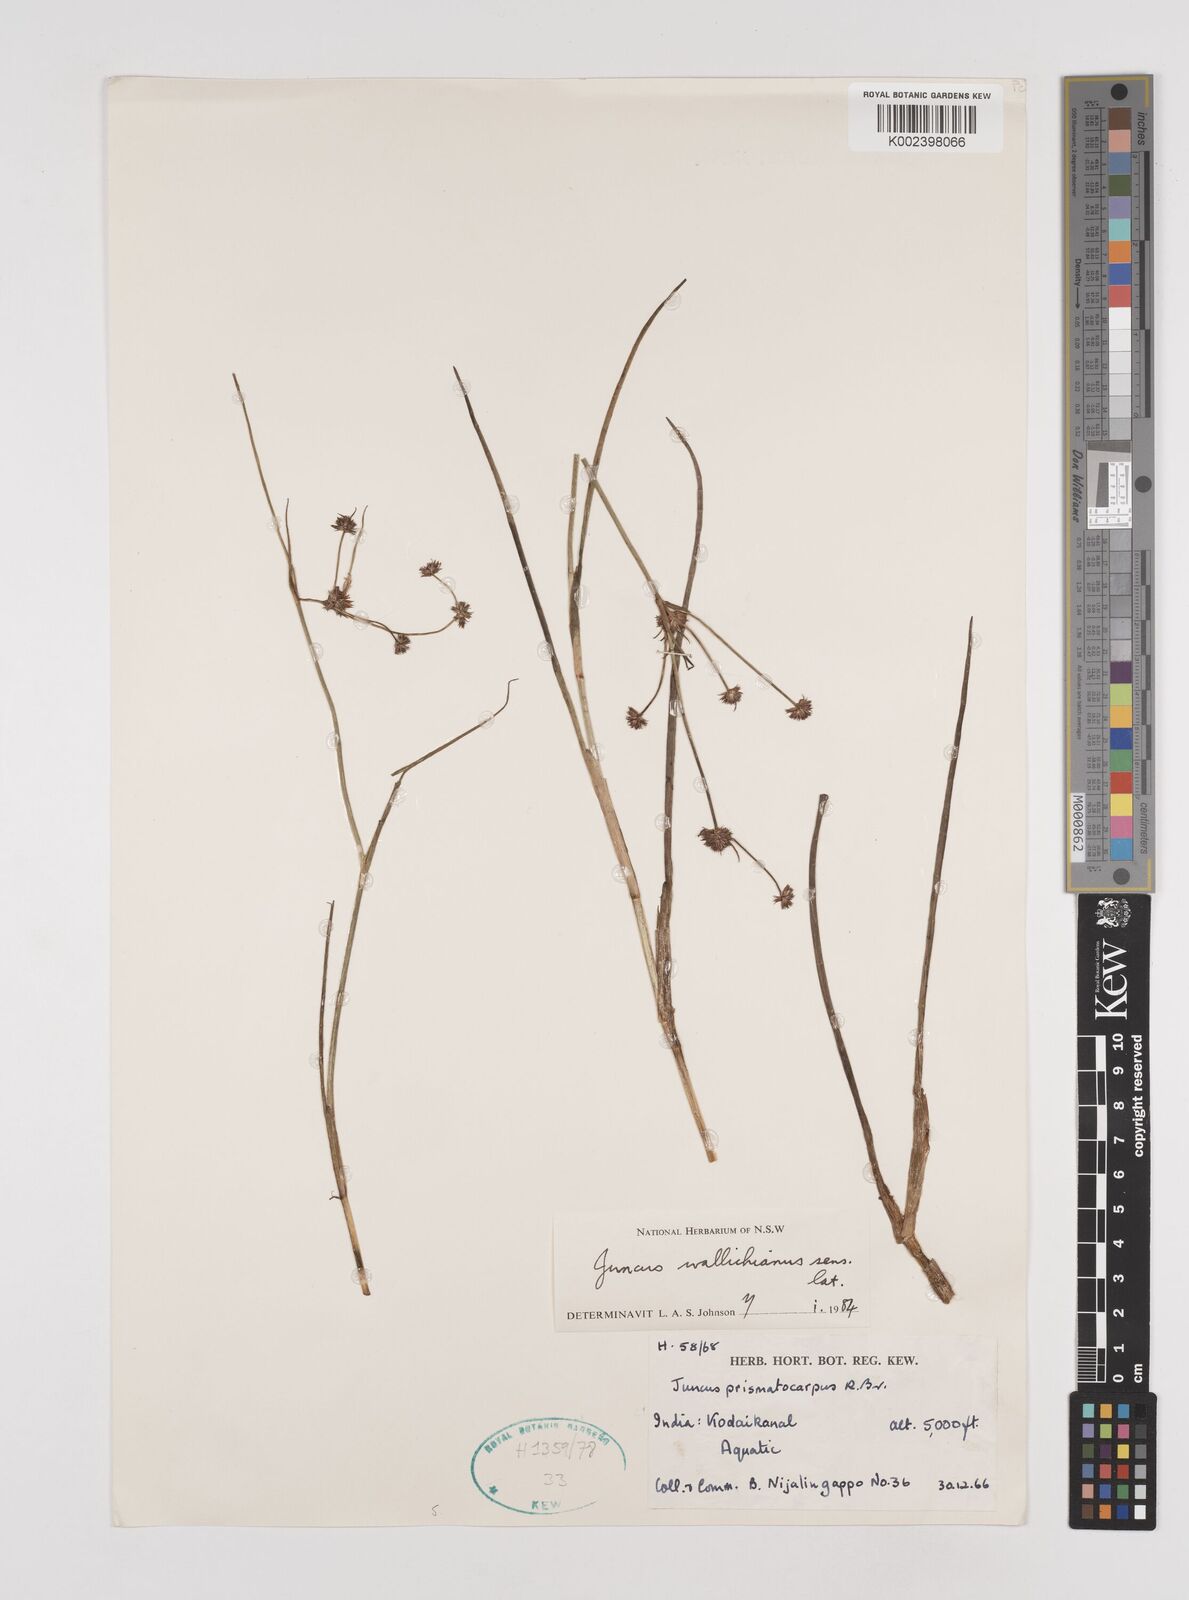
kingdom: Plantae
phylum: Tracheophyta
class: Liliopsida
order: Poales
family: Juncaceae
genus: Juncus
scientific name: Juncus wallichianus
